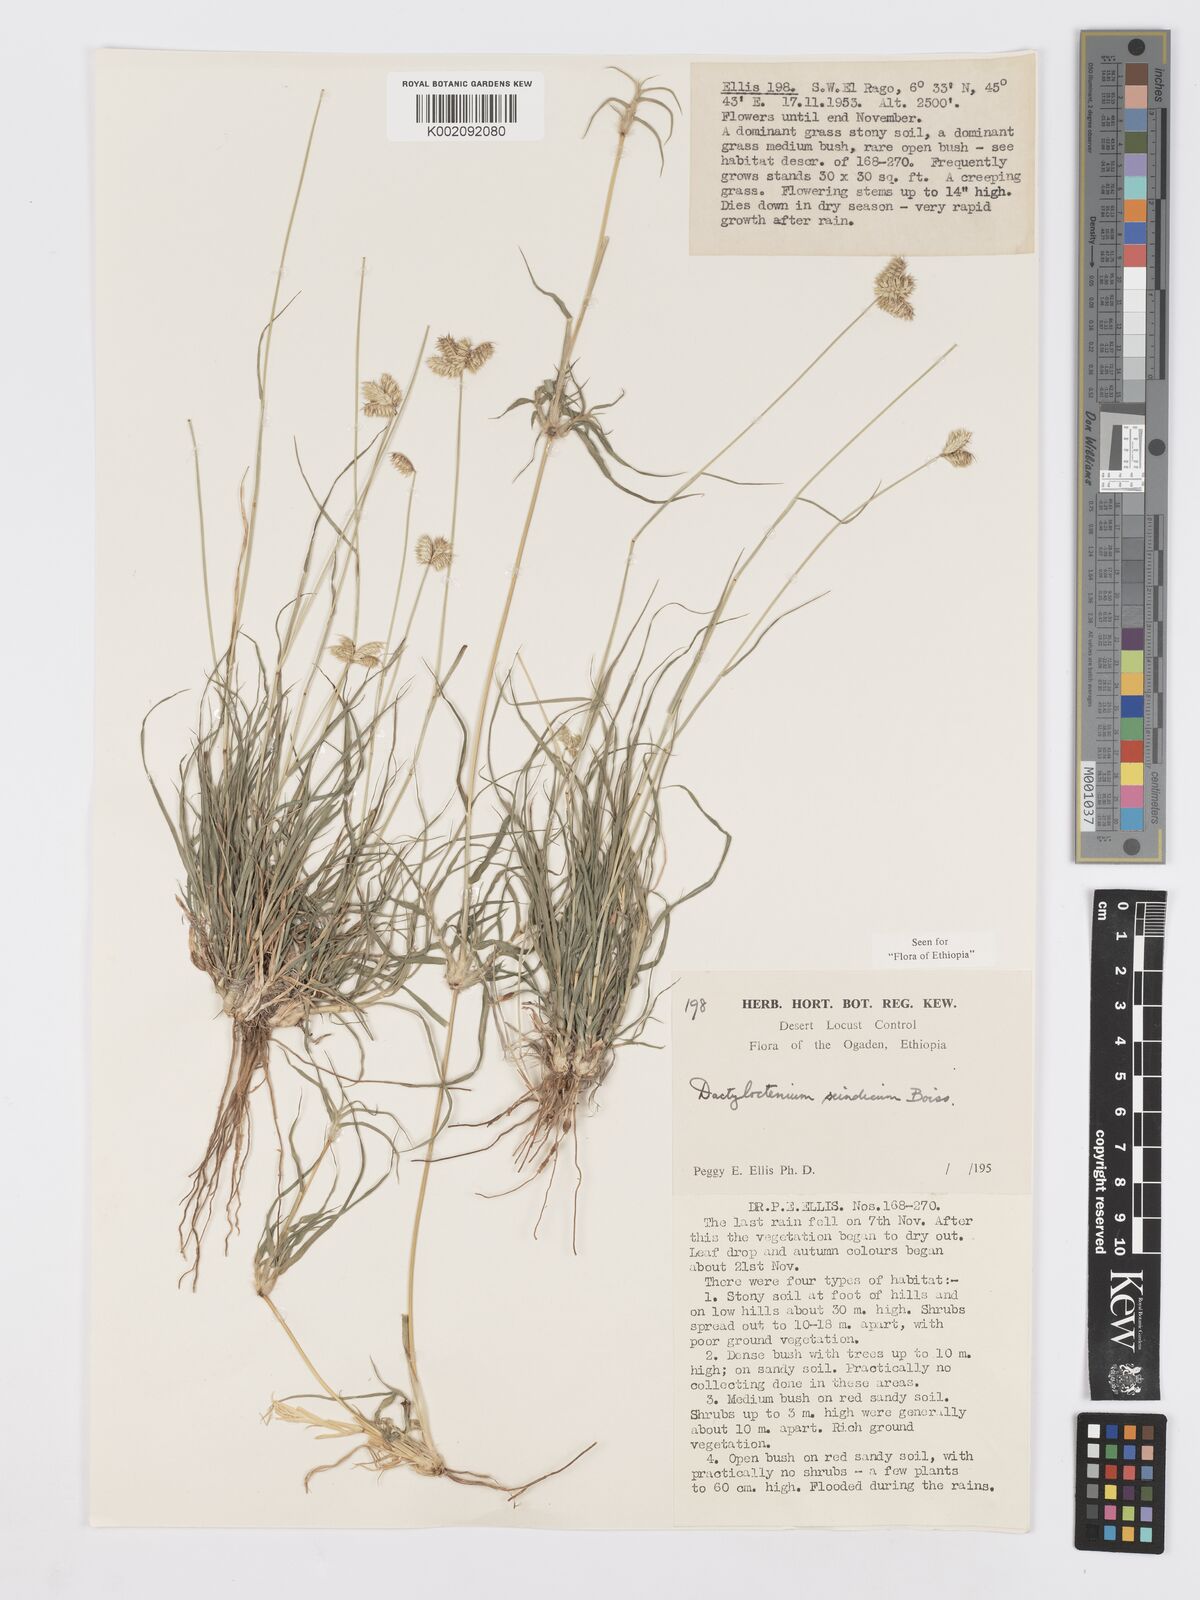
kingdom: Plantae
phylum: Tracheophyta
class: Liliopsida
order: Poales
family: Poaceae
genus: Dactyloctenium
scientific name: Dactyloctenium scindicum
